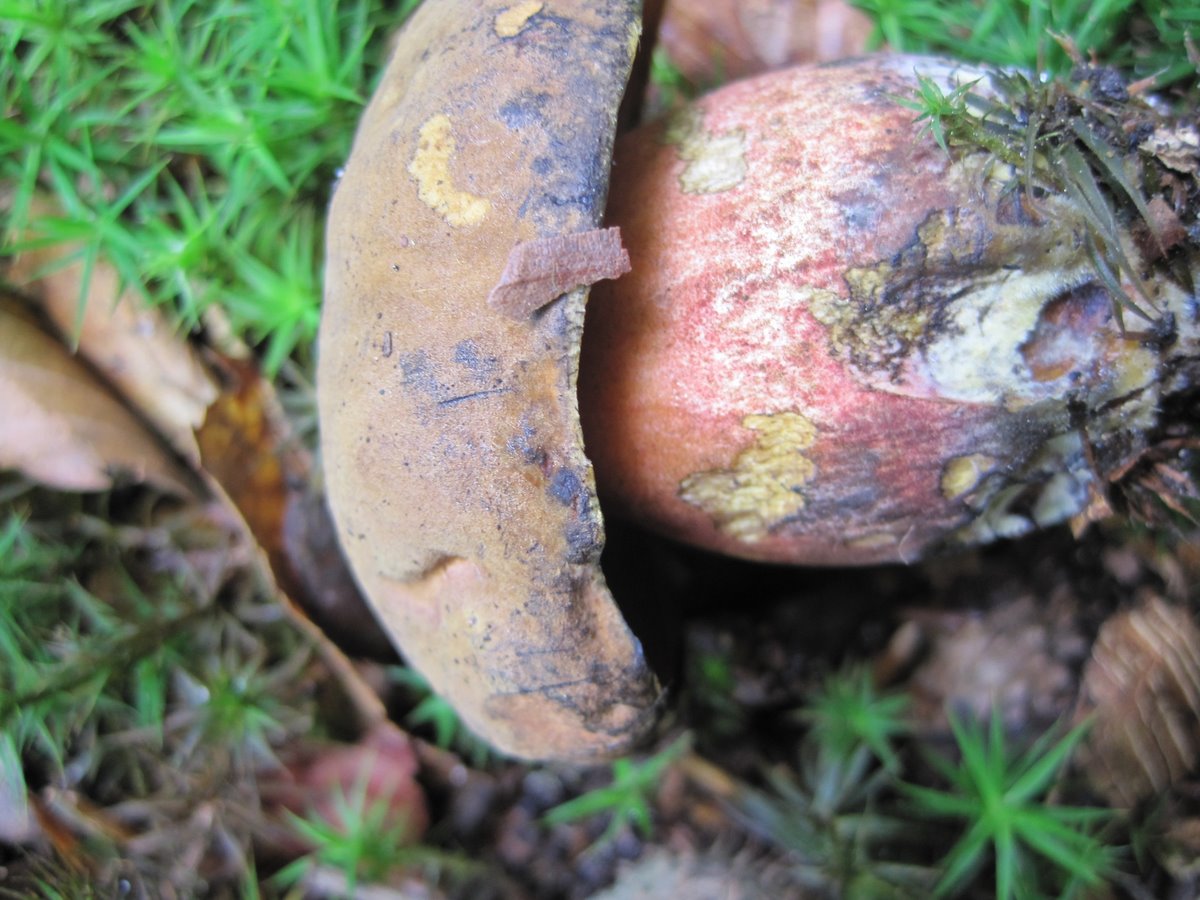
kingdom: Fungi
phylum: Basidiomycota
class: Agaricomycetes
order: Boletales
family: Boletaceae
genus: Neoboletus
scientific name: Neoboletus erythropus
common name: punktstokket indigorørhat
